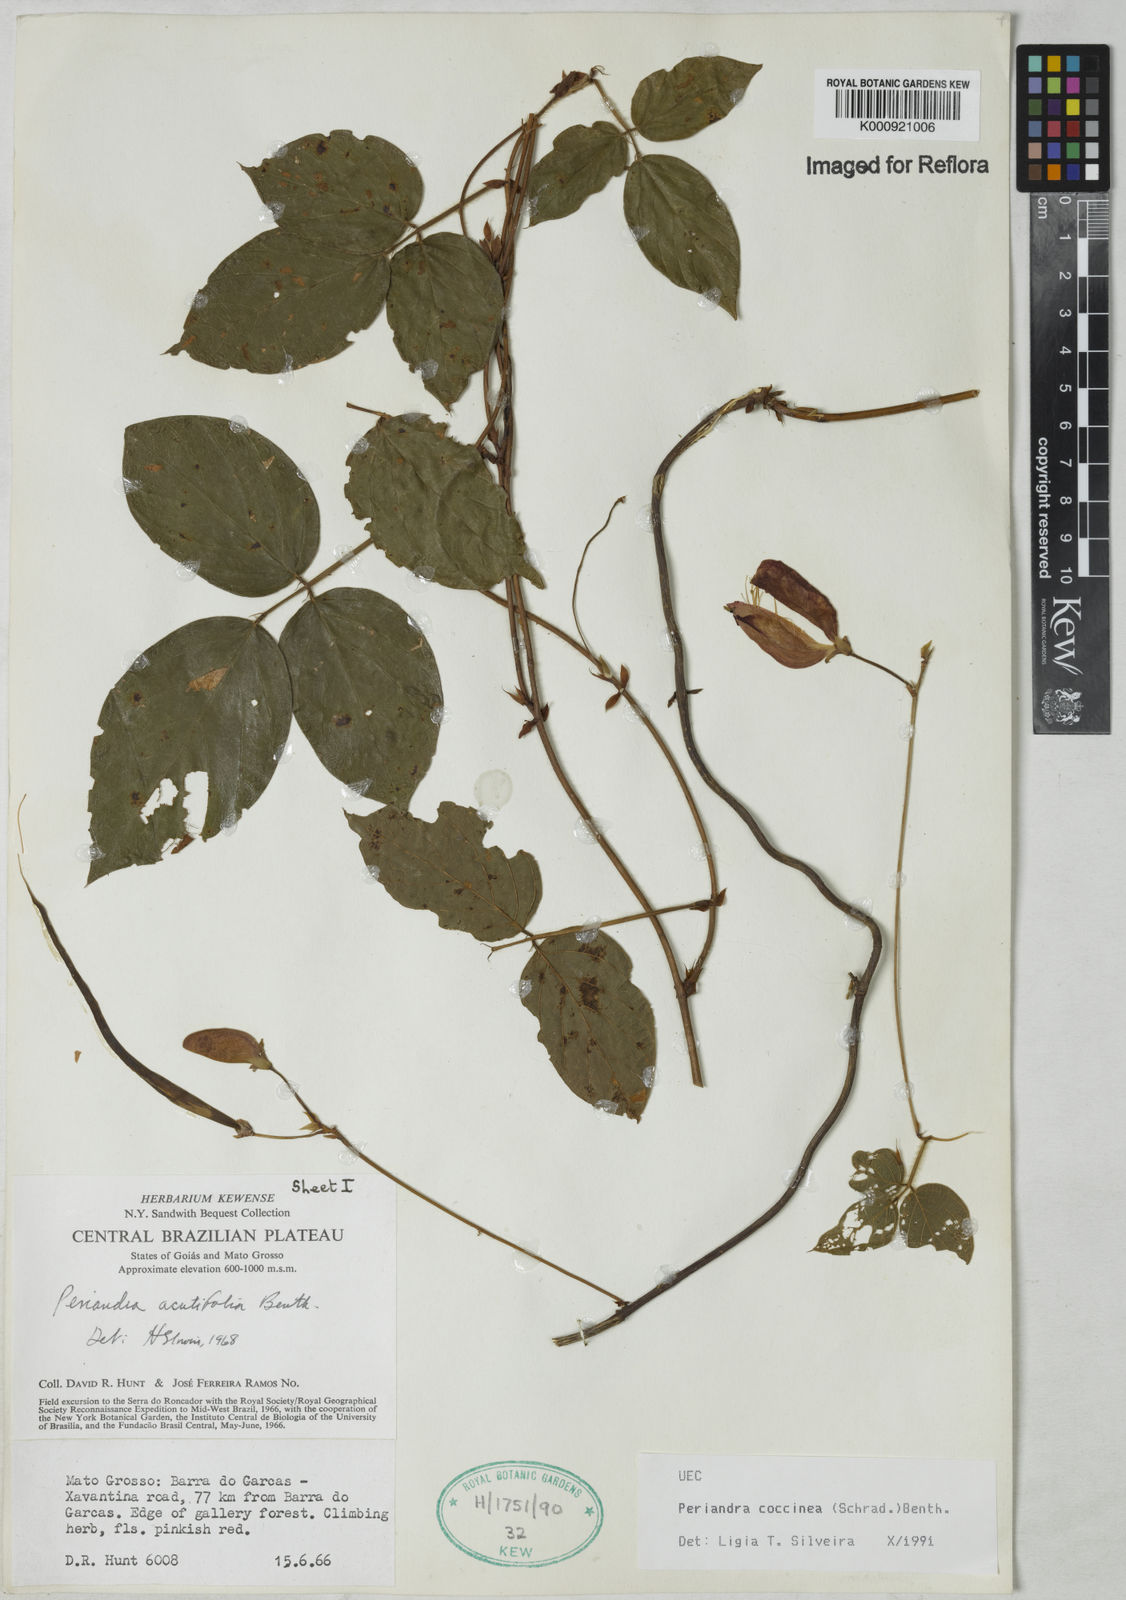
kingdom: Plantae
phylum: Tracheophyta
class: Magnoliopsida
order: Fabales
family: Fabaceae
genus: Periandra
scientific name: Periandra coccinea
